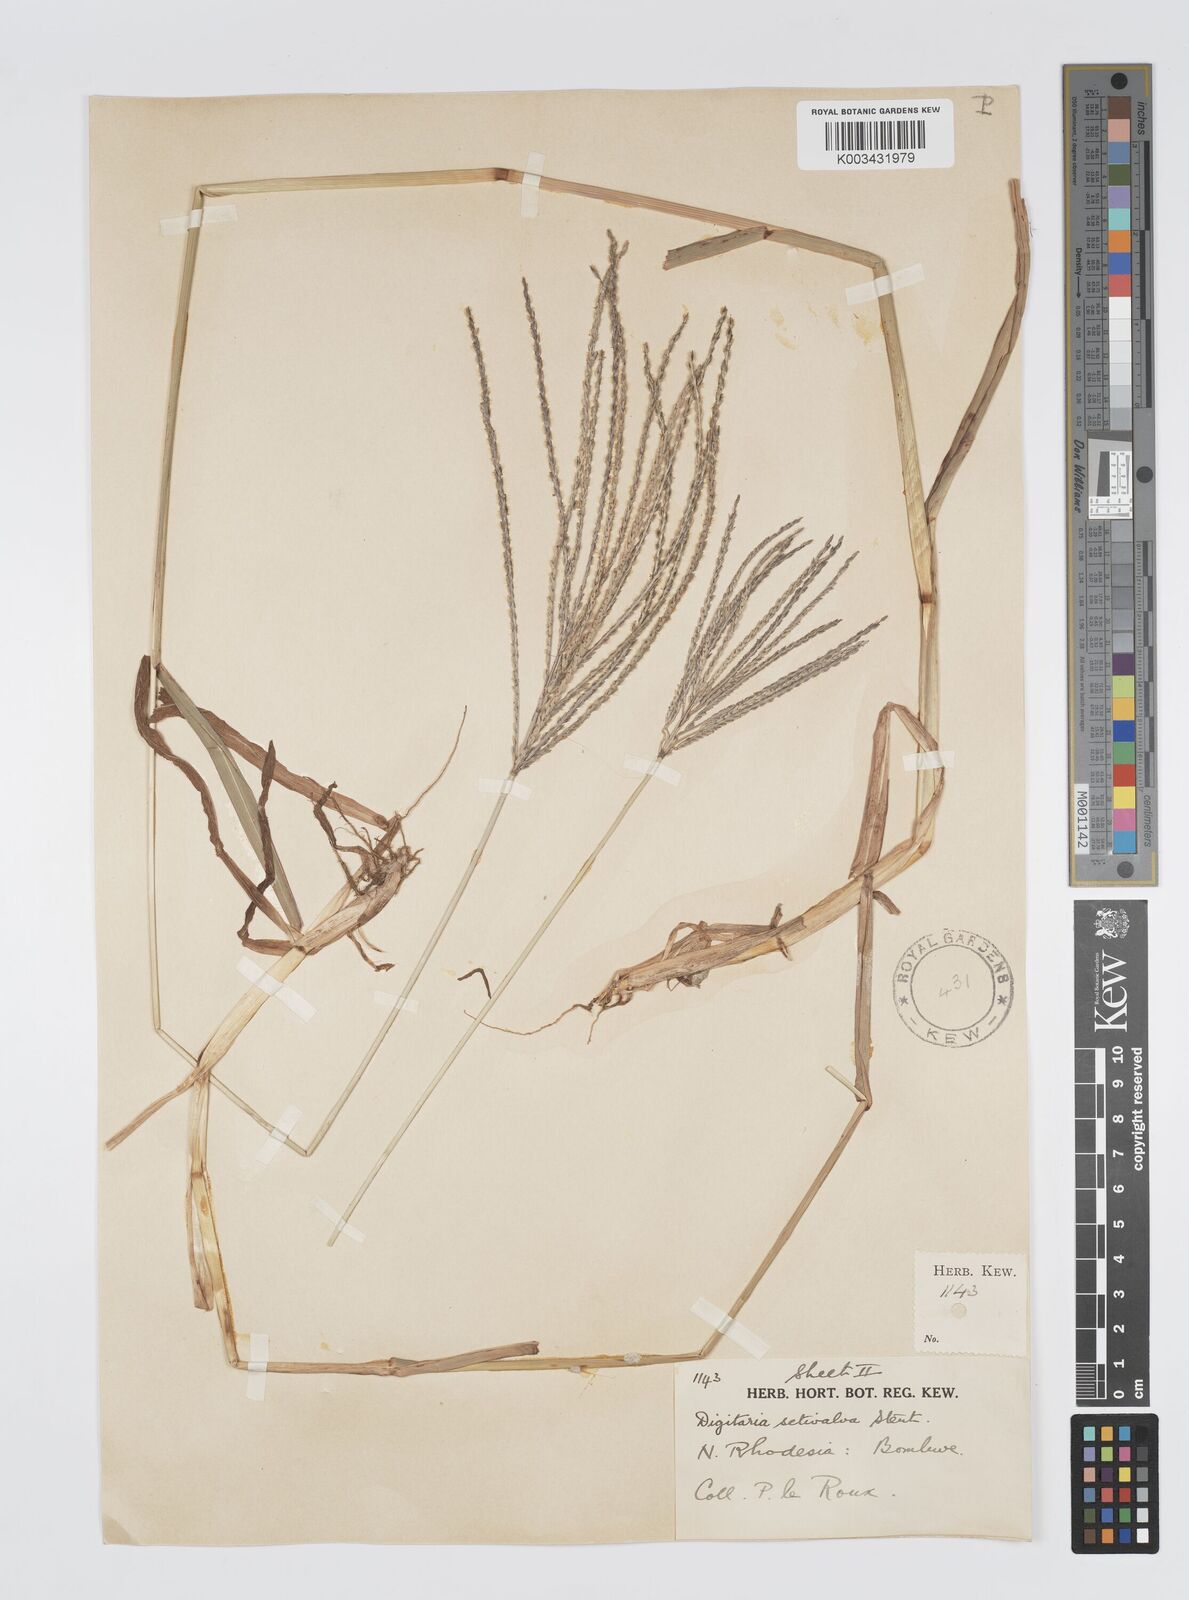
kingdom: Plantae
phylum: Tracheophyta
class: Liliopsida
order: Poales
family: Poaceae
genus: Digitaria
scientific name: Digitaria milanjiana
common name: Madagascar crabgrass
